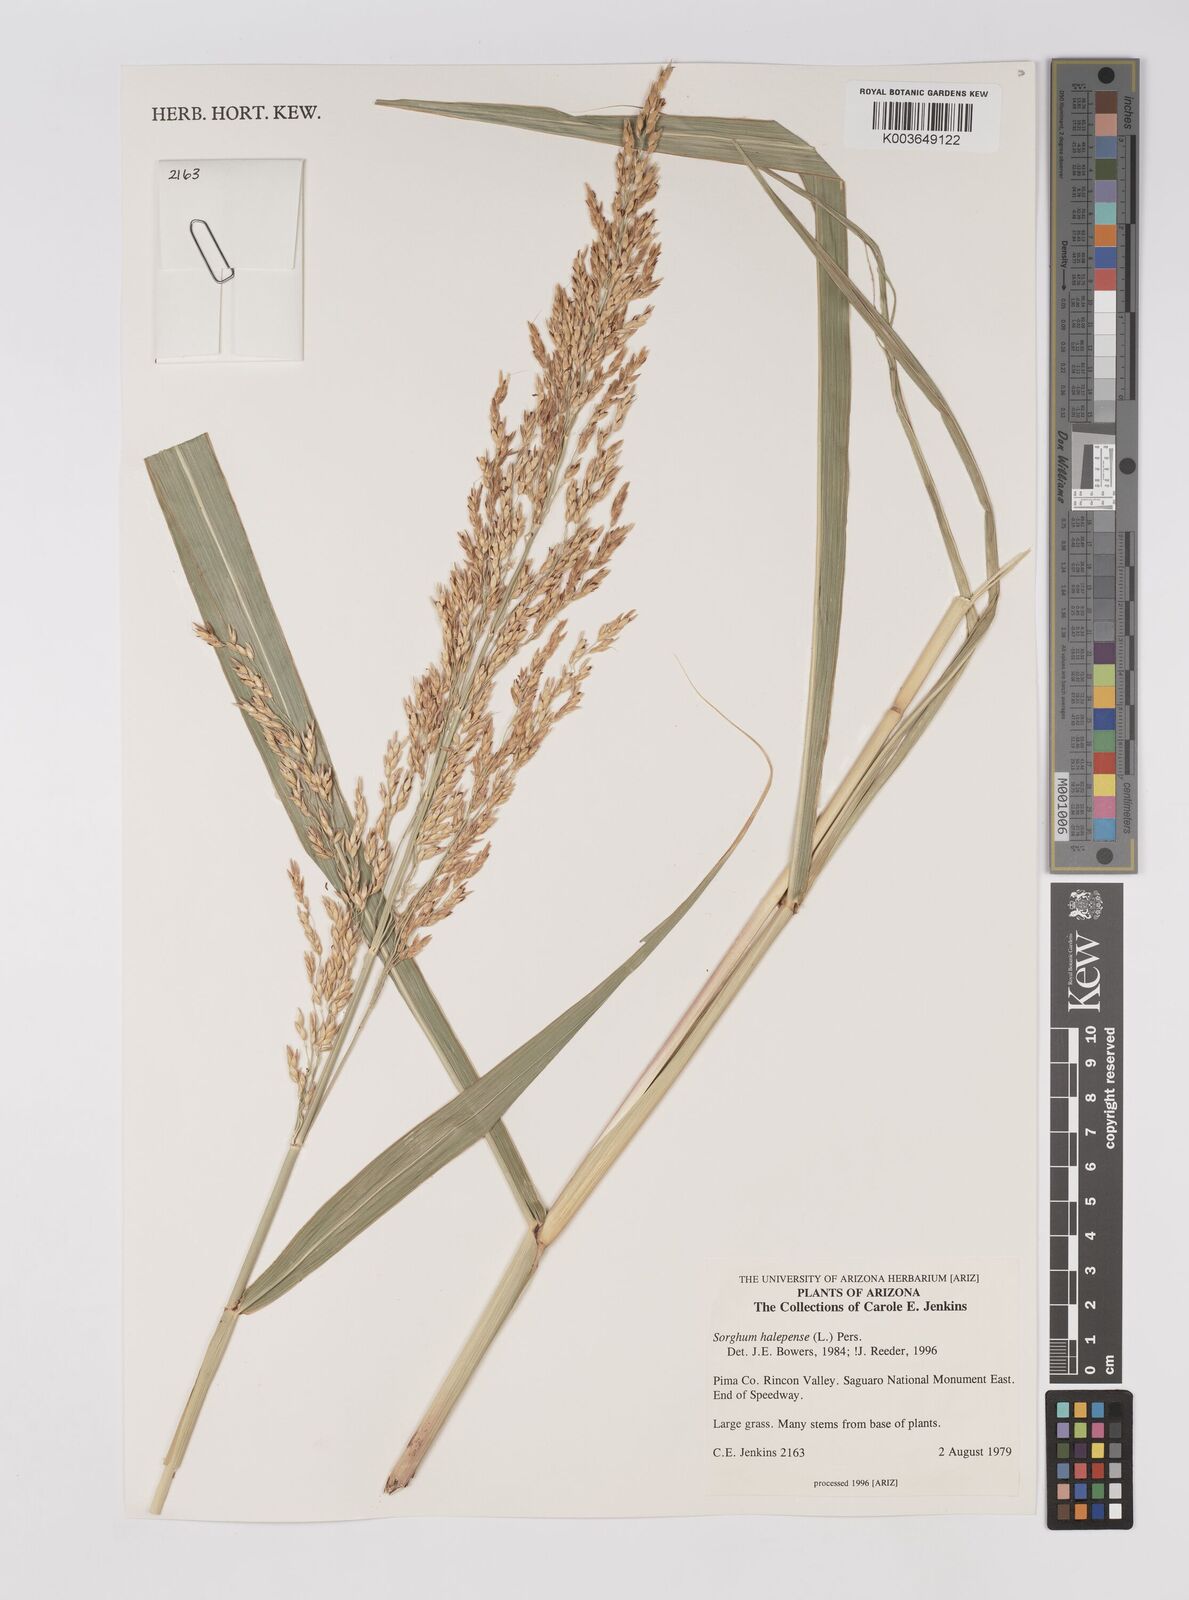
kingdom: Plantae
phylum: Tracheophyta
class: Liliopsida
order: Poales
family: Poaceae
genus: Sorghum
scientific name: Sorghum halepense
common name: Johnson-grass
